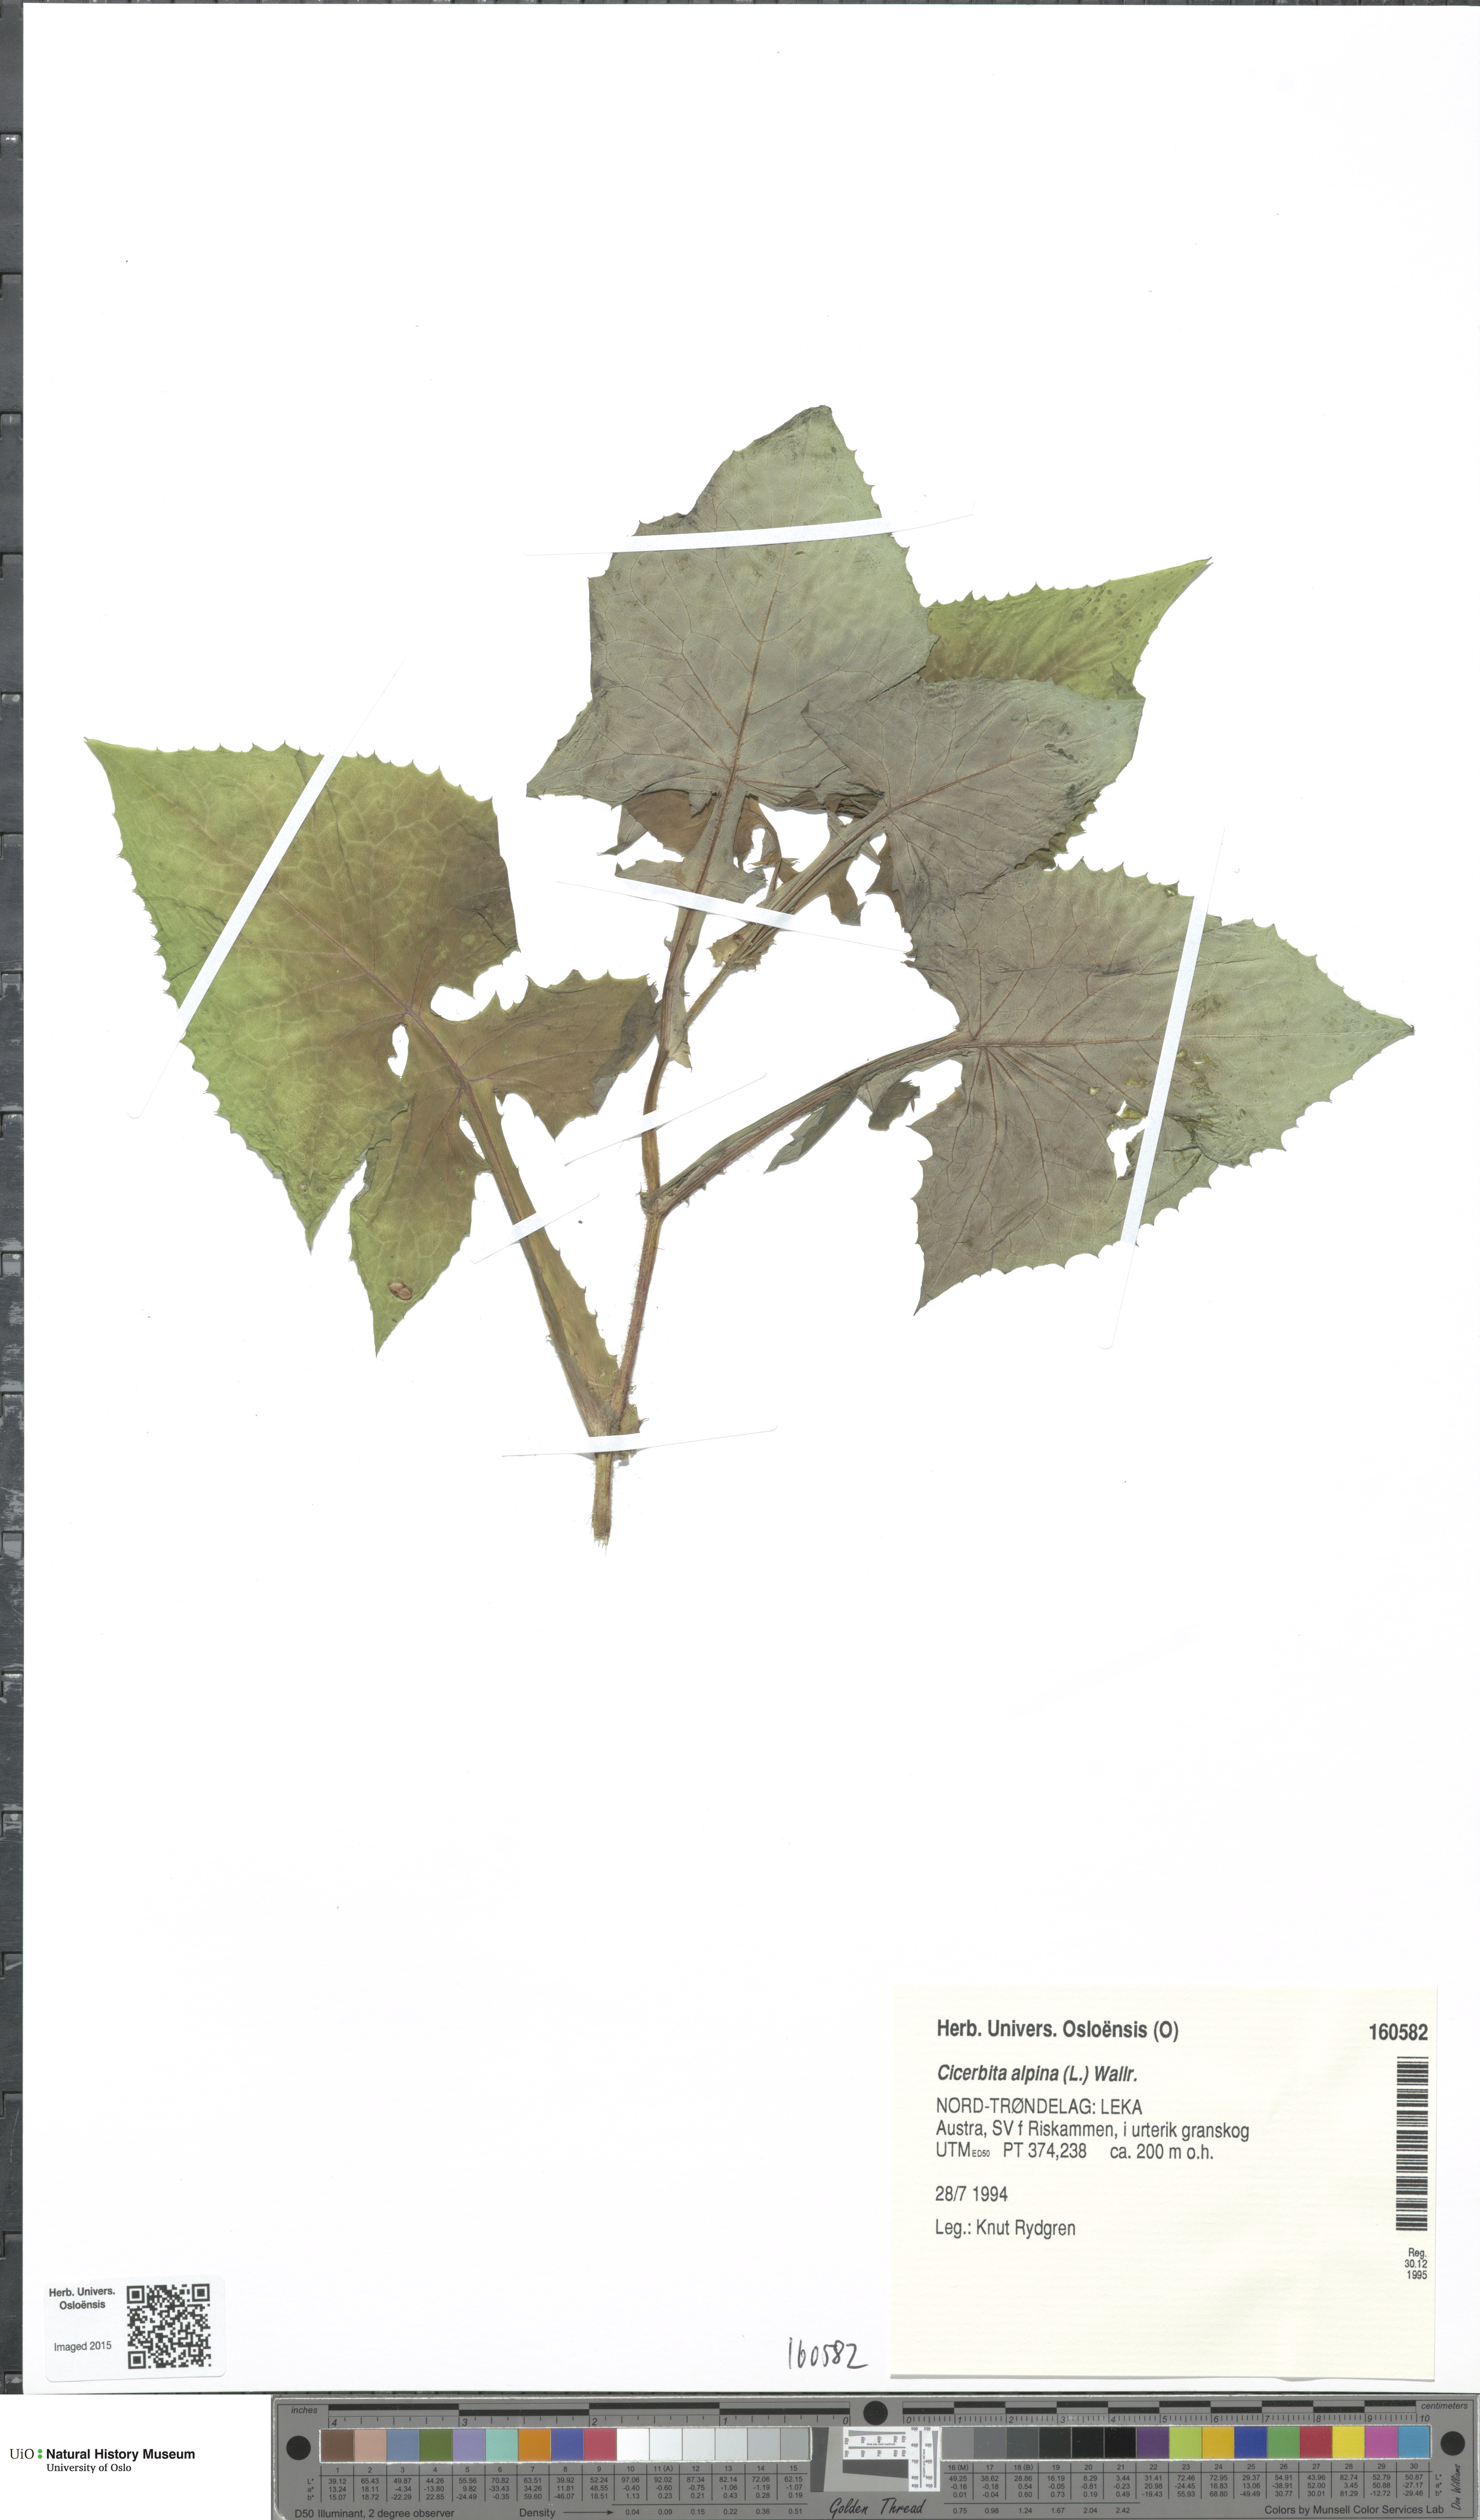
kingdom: Plantae
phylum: Tracheophyta
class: Magnoliopsida
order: Asterales
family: Asteraceae
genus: Cicerbita
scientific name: Cicerbita alpina
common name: Alpine blue-sow-thistle
